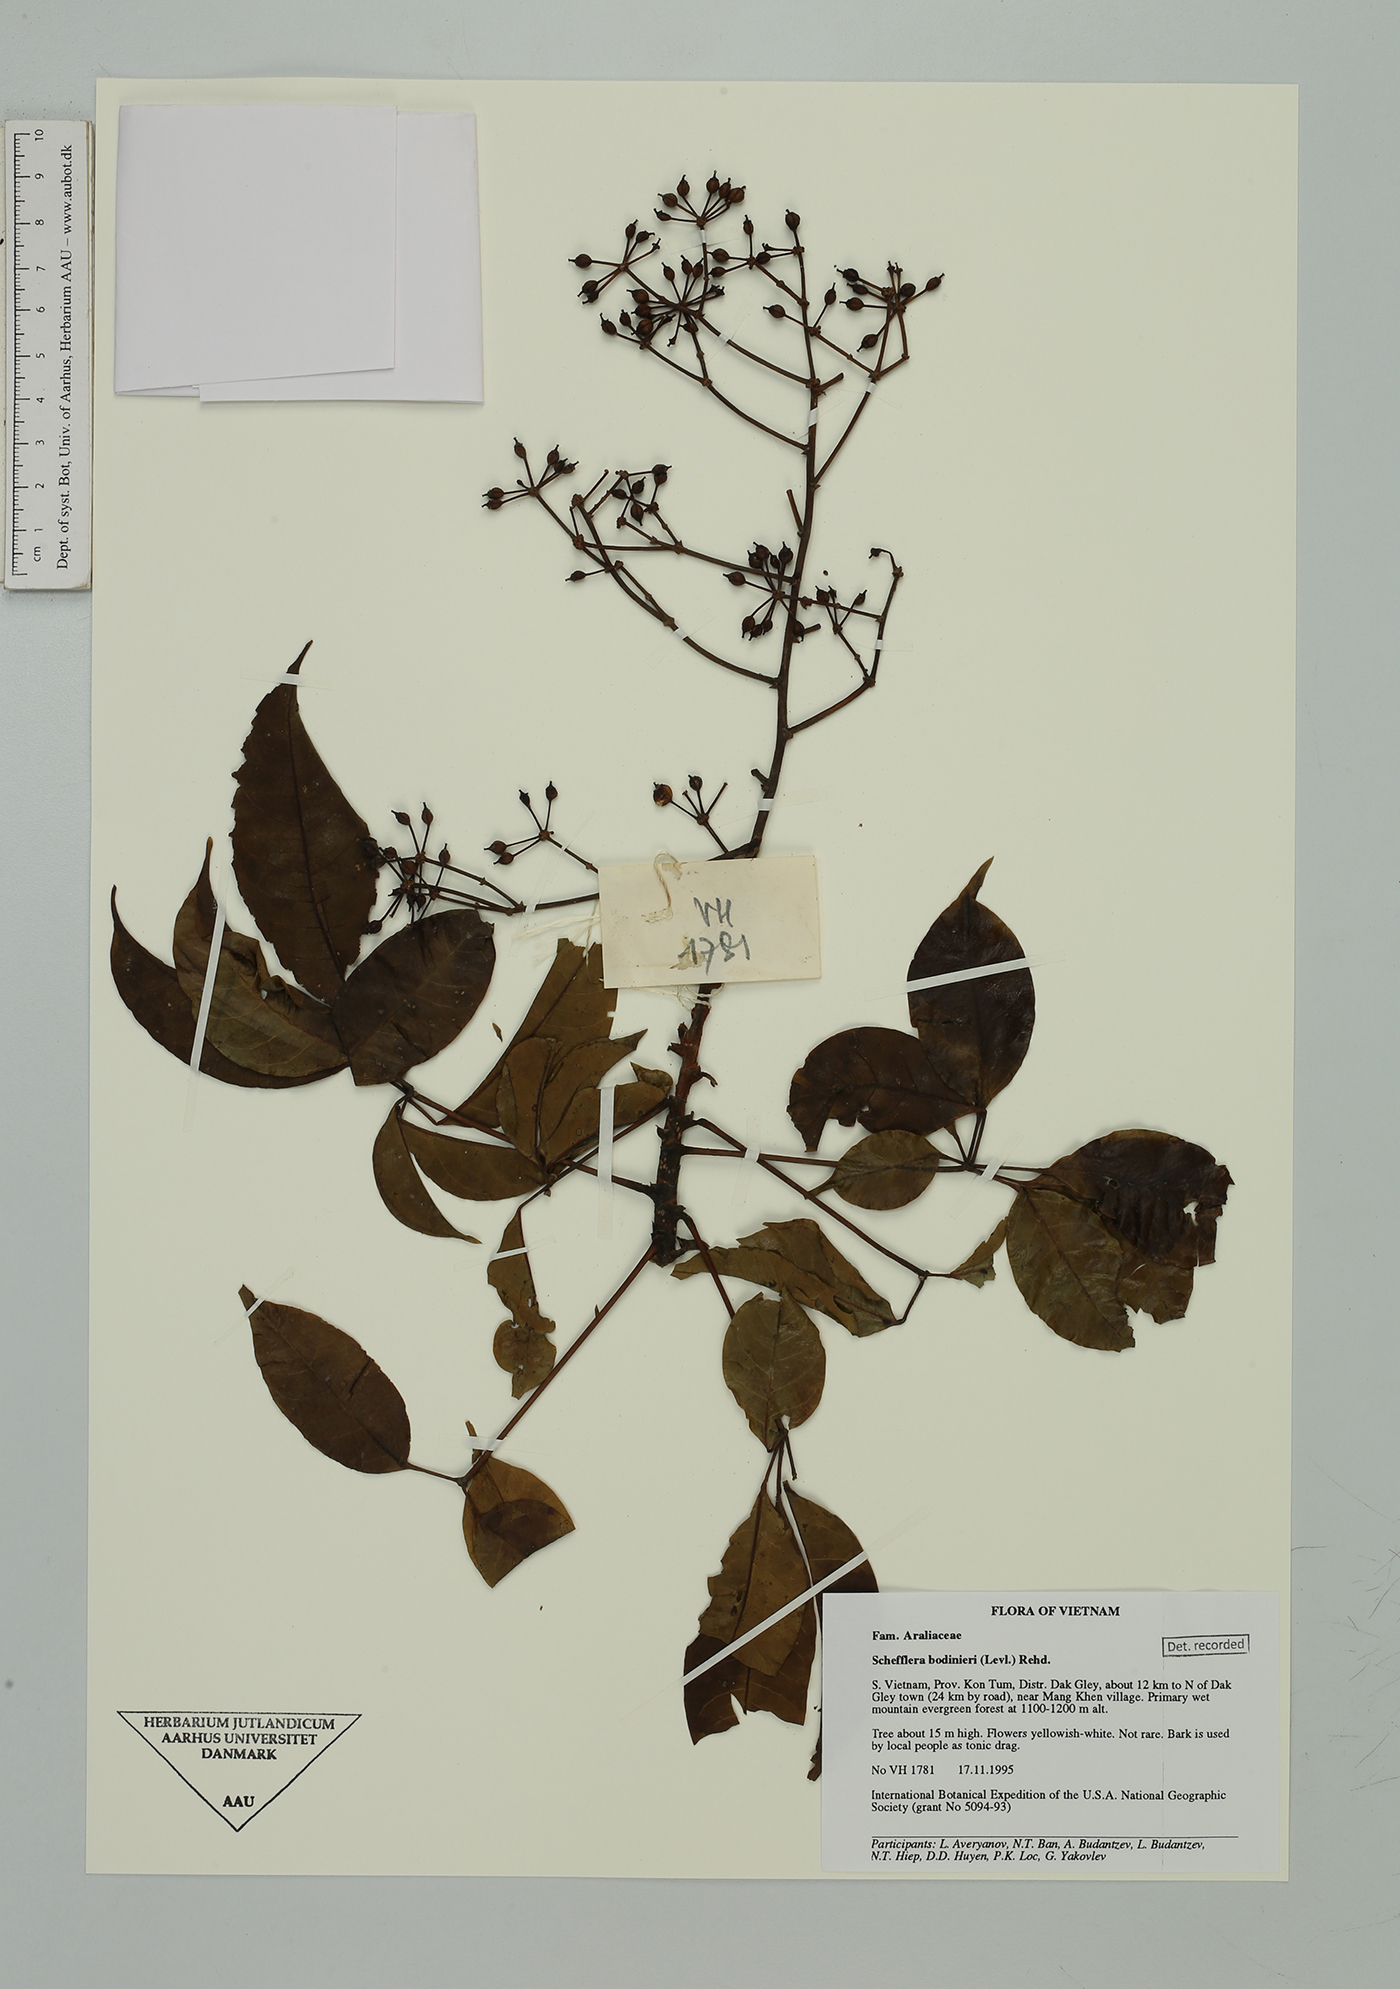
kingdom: Plantae
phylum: Tracheophyta
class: Magnoliopsida
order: Apiales
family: Araliaceae
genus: Heptapleurum
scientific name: Heptapleurum bodinieri
